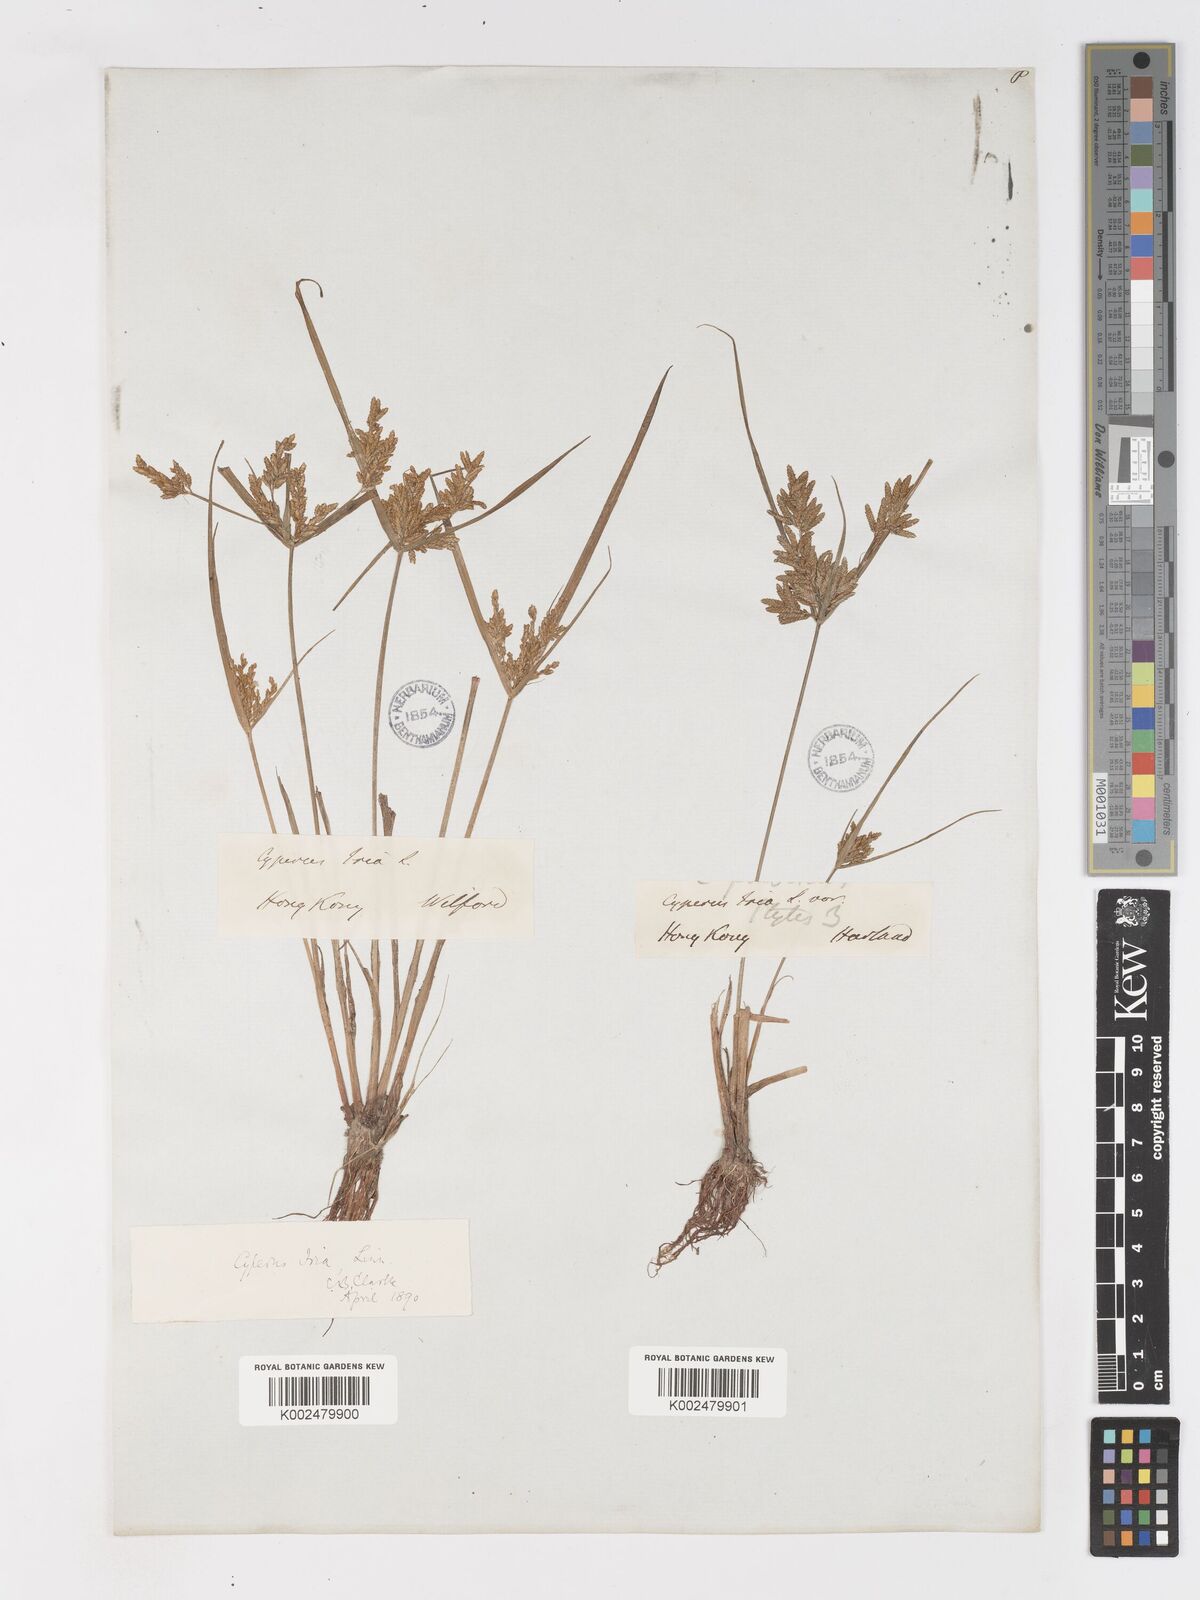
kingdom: Plantae
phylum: Tracheophyta
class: Liliopsida
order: Poales
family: Cyperaceae
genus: Cyperus
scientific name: Cyperus iria
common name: Ricefield flatsedge
